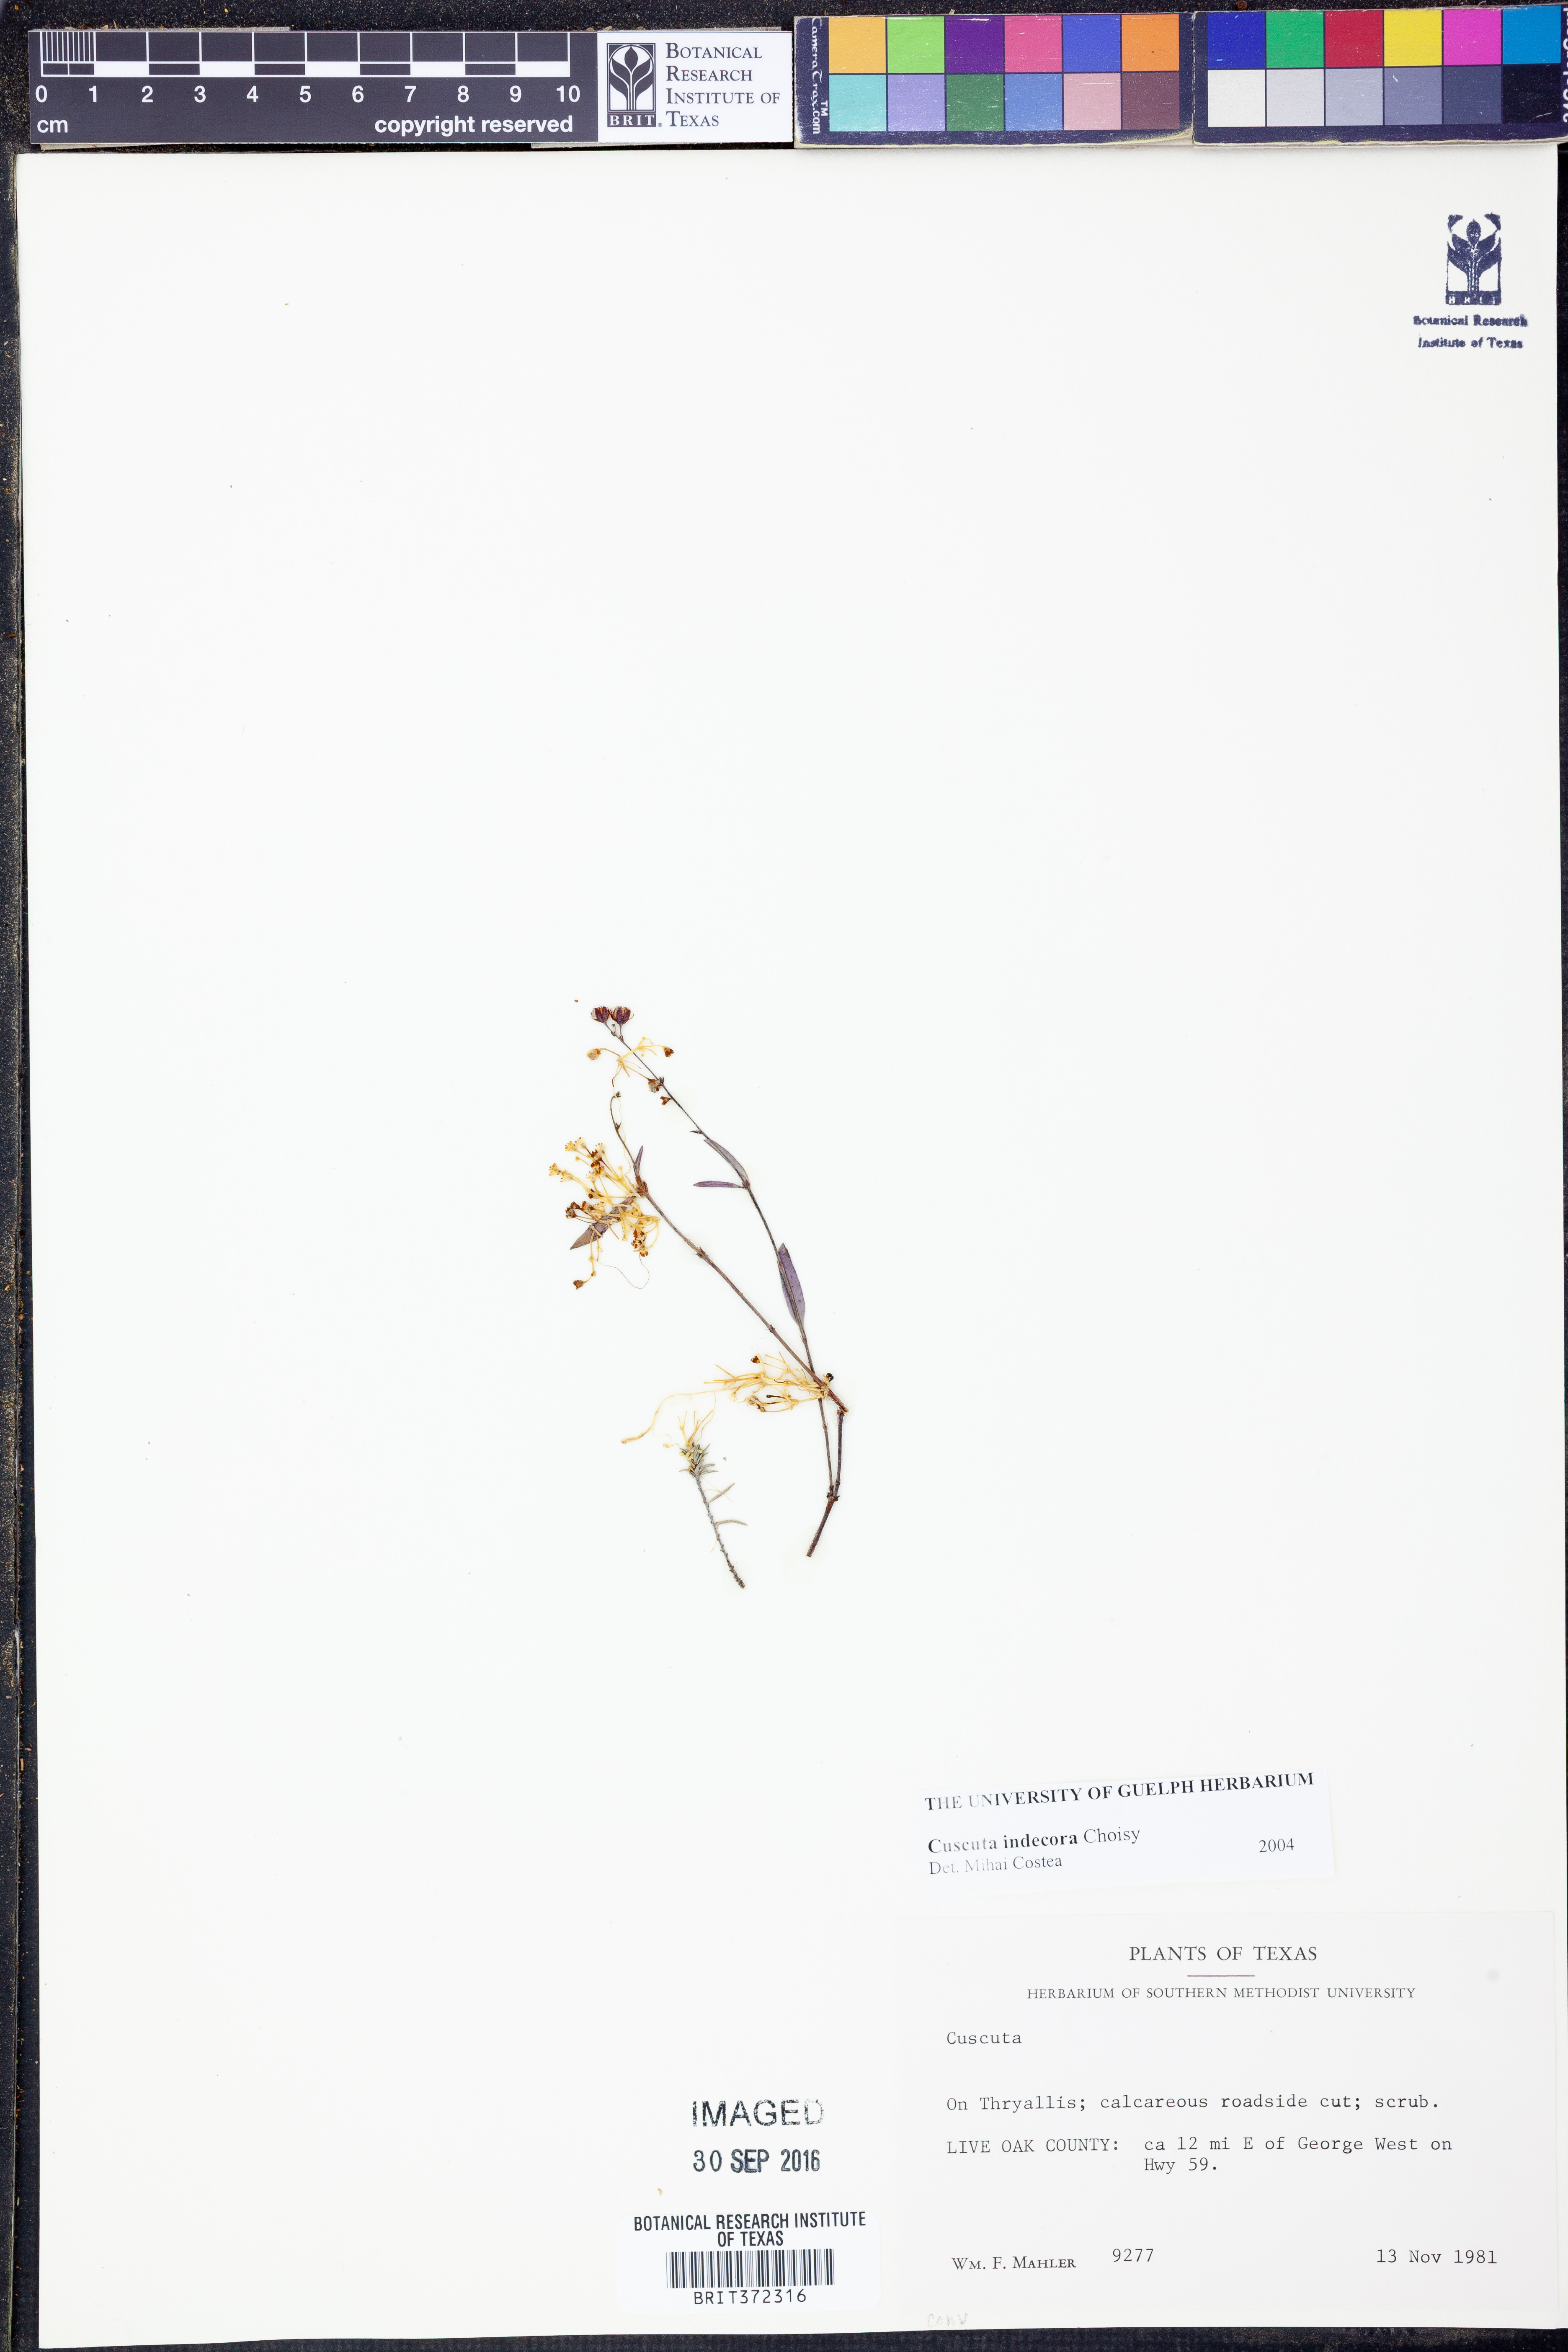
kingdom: Plantae
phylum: Tracheophyta
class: Magnoliopsida
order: Solanales
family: Convolvulaceae
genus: Cuscuta
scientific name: Cuscuta indecora
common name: Large-seed dodder
